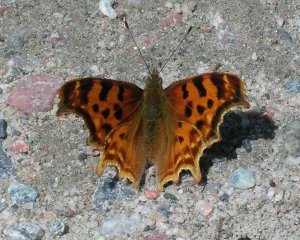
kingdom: Animalia
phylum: Arthropoda
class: Insecta
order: Lepidoptera
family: Nymphalidae
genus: Polygonia
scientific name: Polygonia satyrus
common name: Satyr Comma
